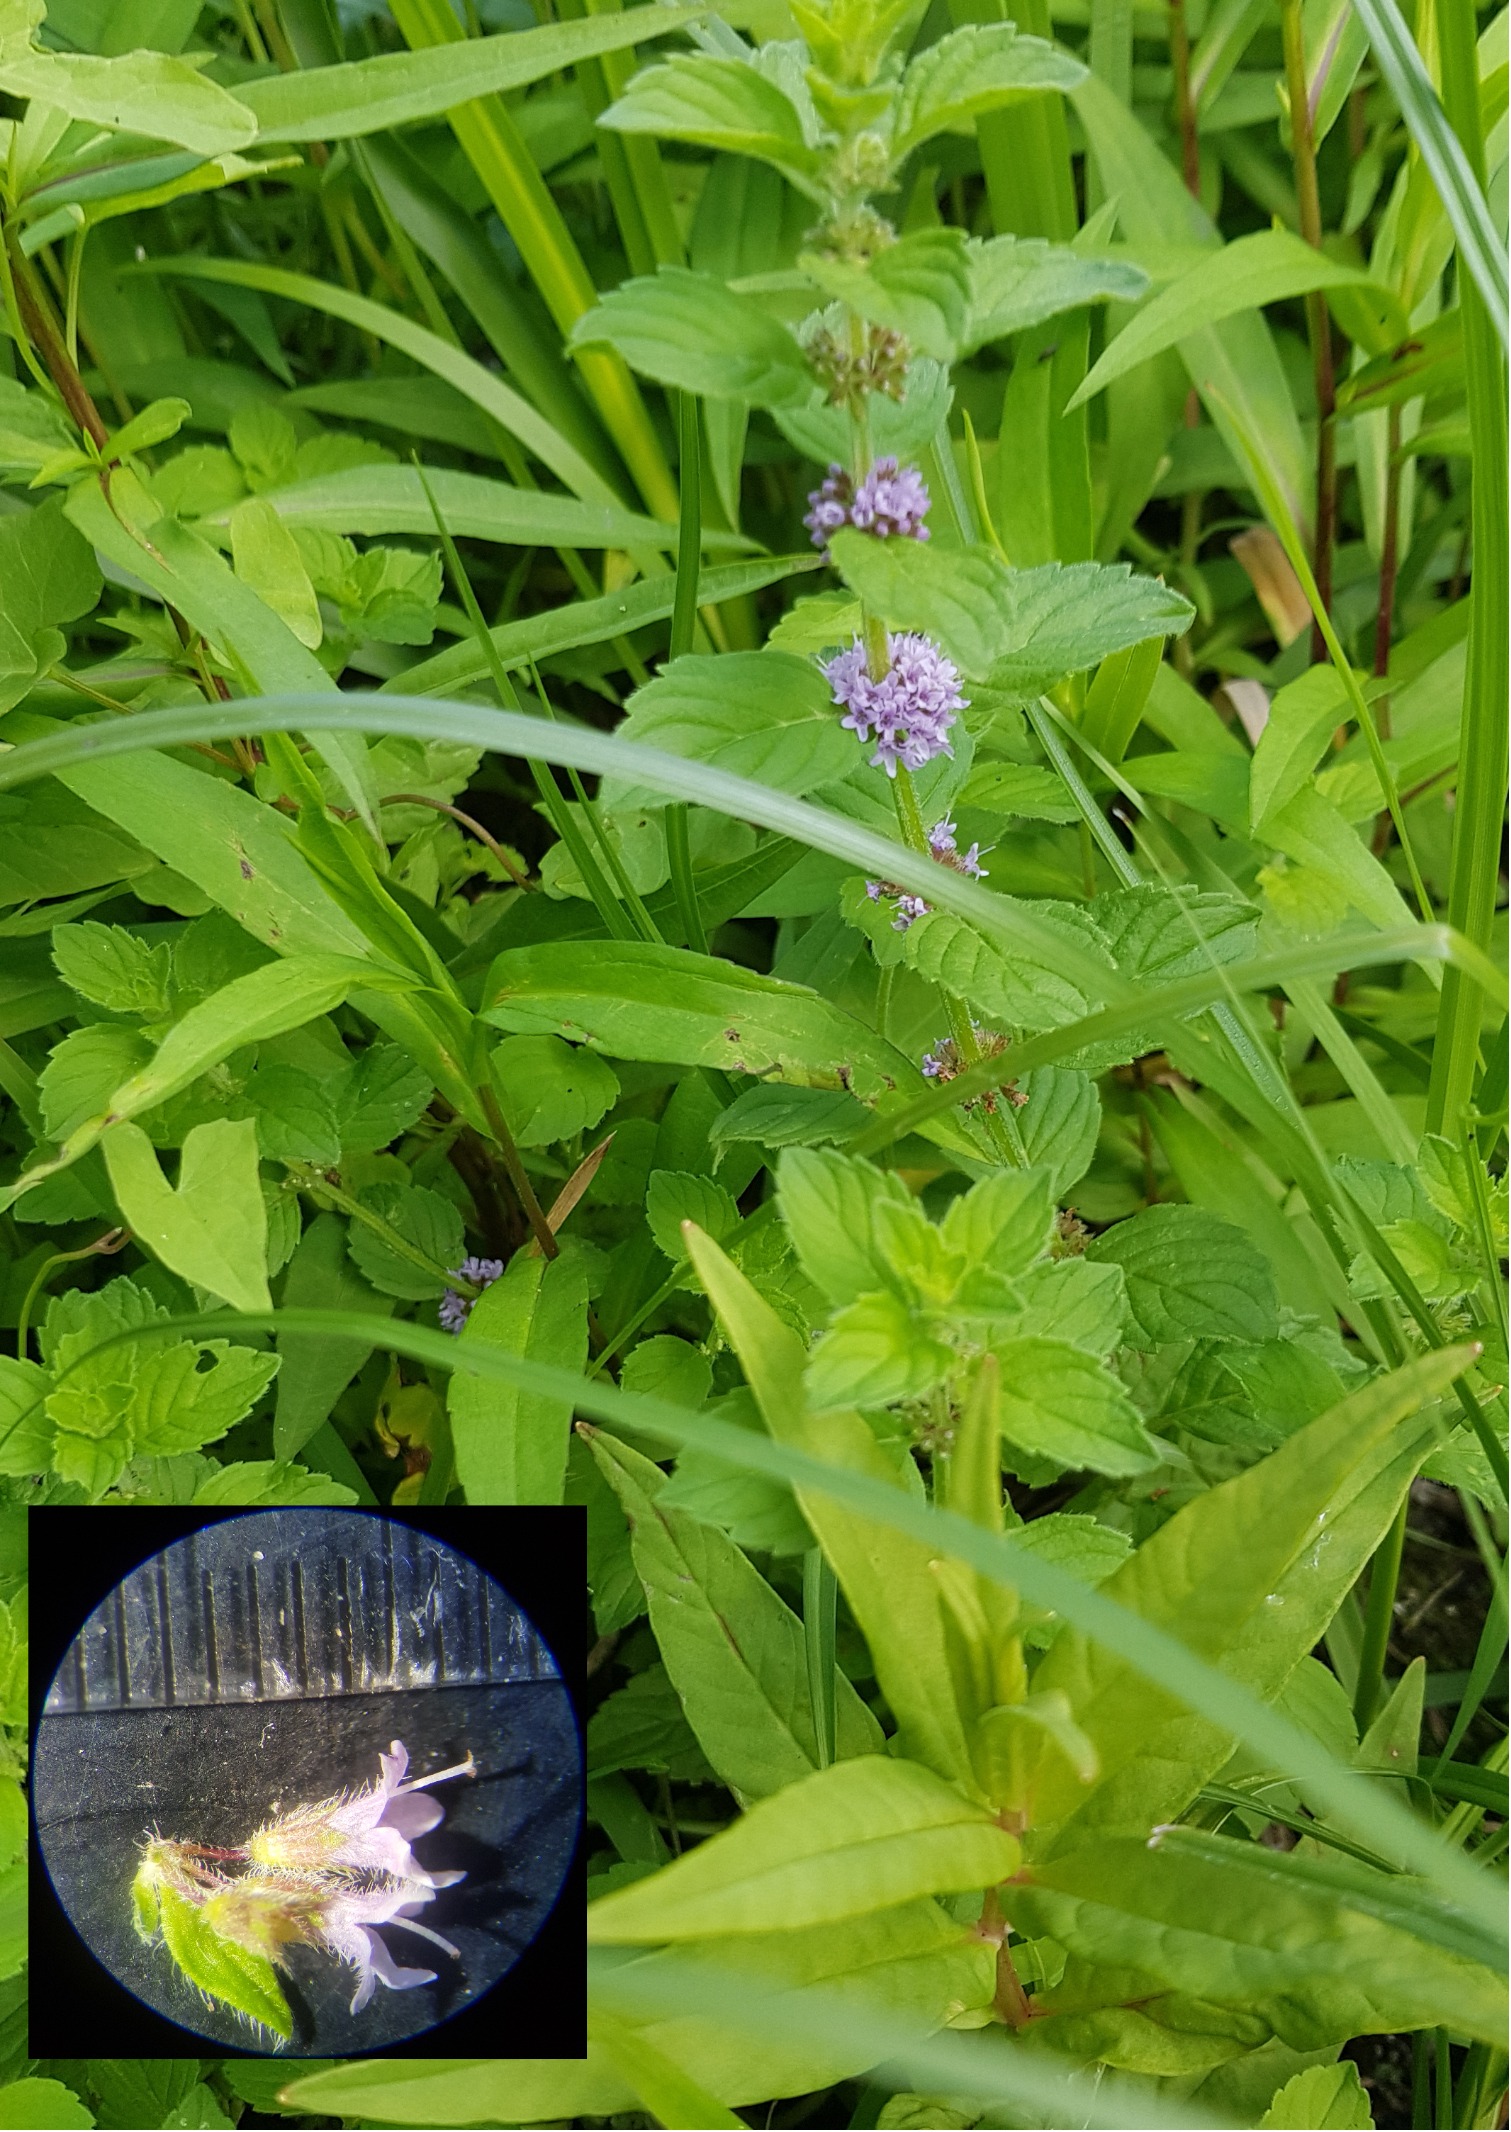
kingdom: Plantae
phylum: Tracheophyta
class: Magnoliopsida
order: Lamiales
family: Lamiaceae
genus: Mentha
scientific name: Mentha arvensis
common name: Ager-mynte
